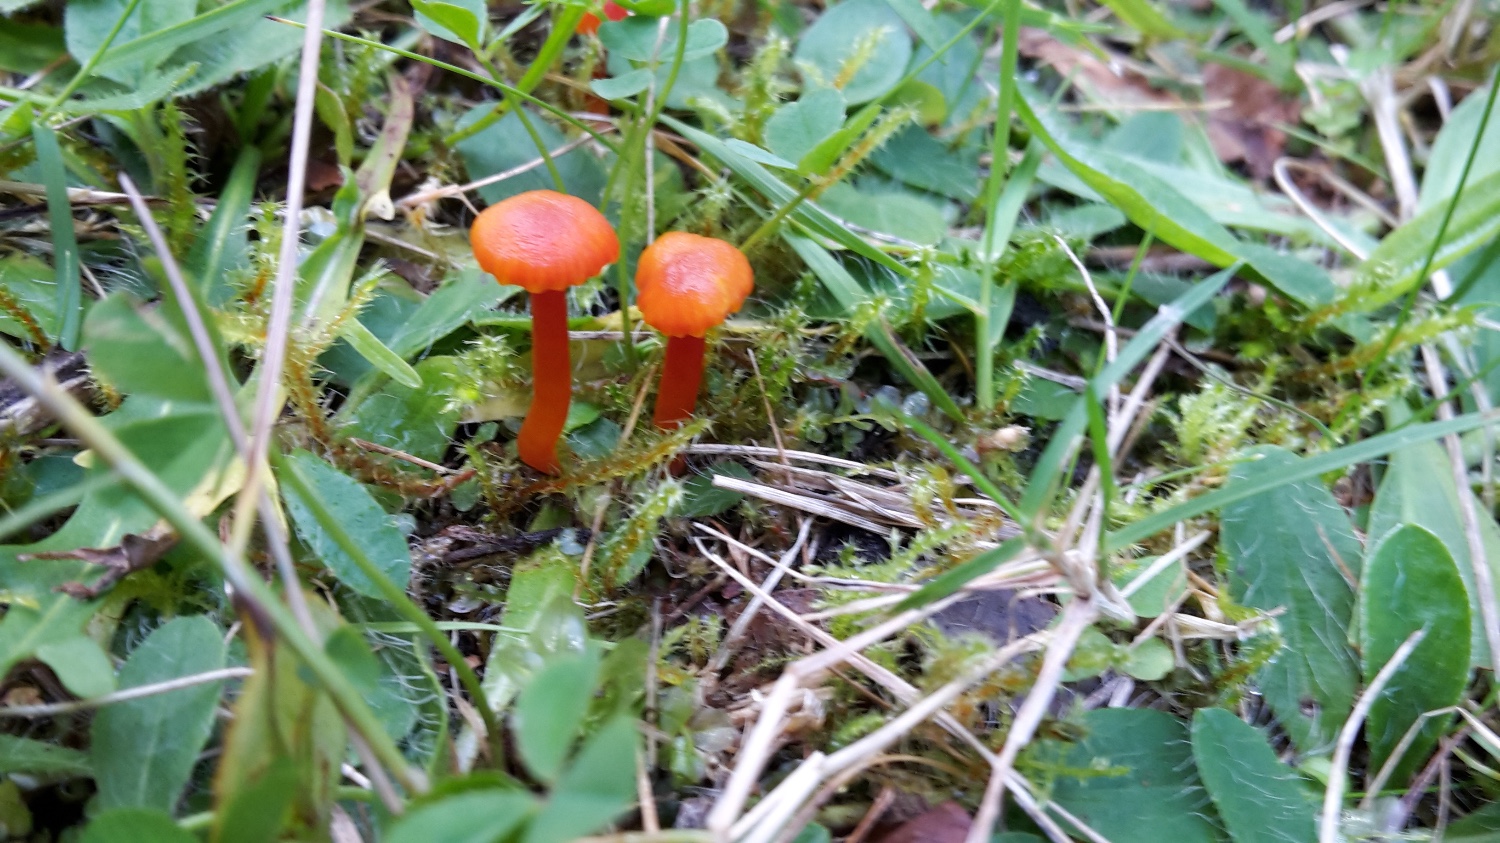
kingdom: Fungi
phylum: Basidiomycota
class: Agaricomycetes
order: Agaricales
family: Hygrophoraceae
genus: Hygrocybe
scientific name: Hygrocybe insipida
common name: liden vokshat
